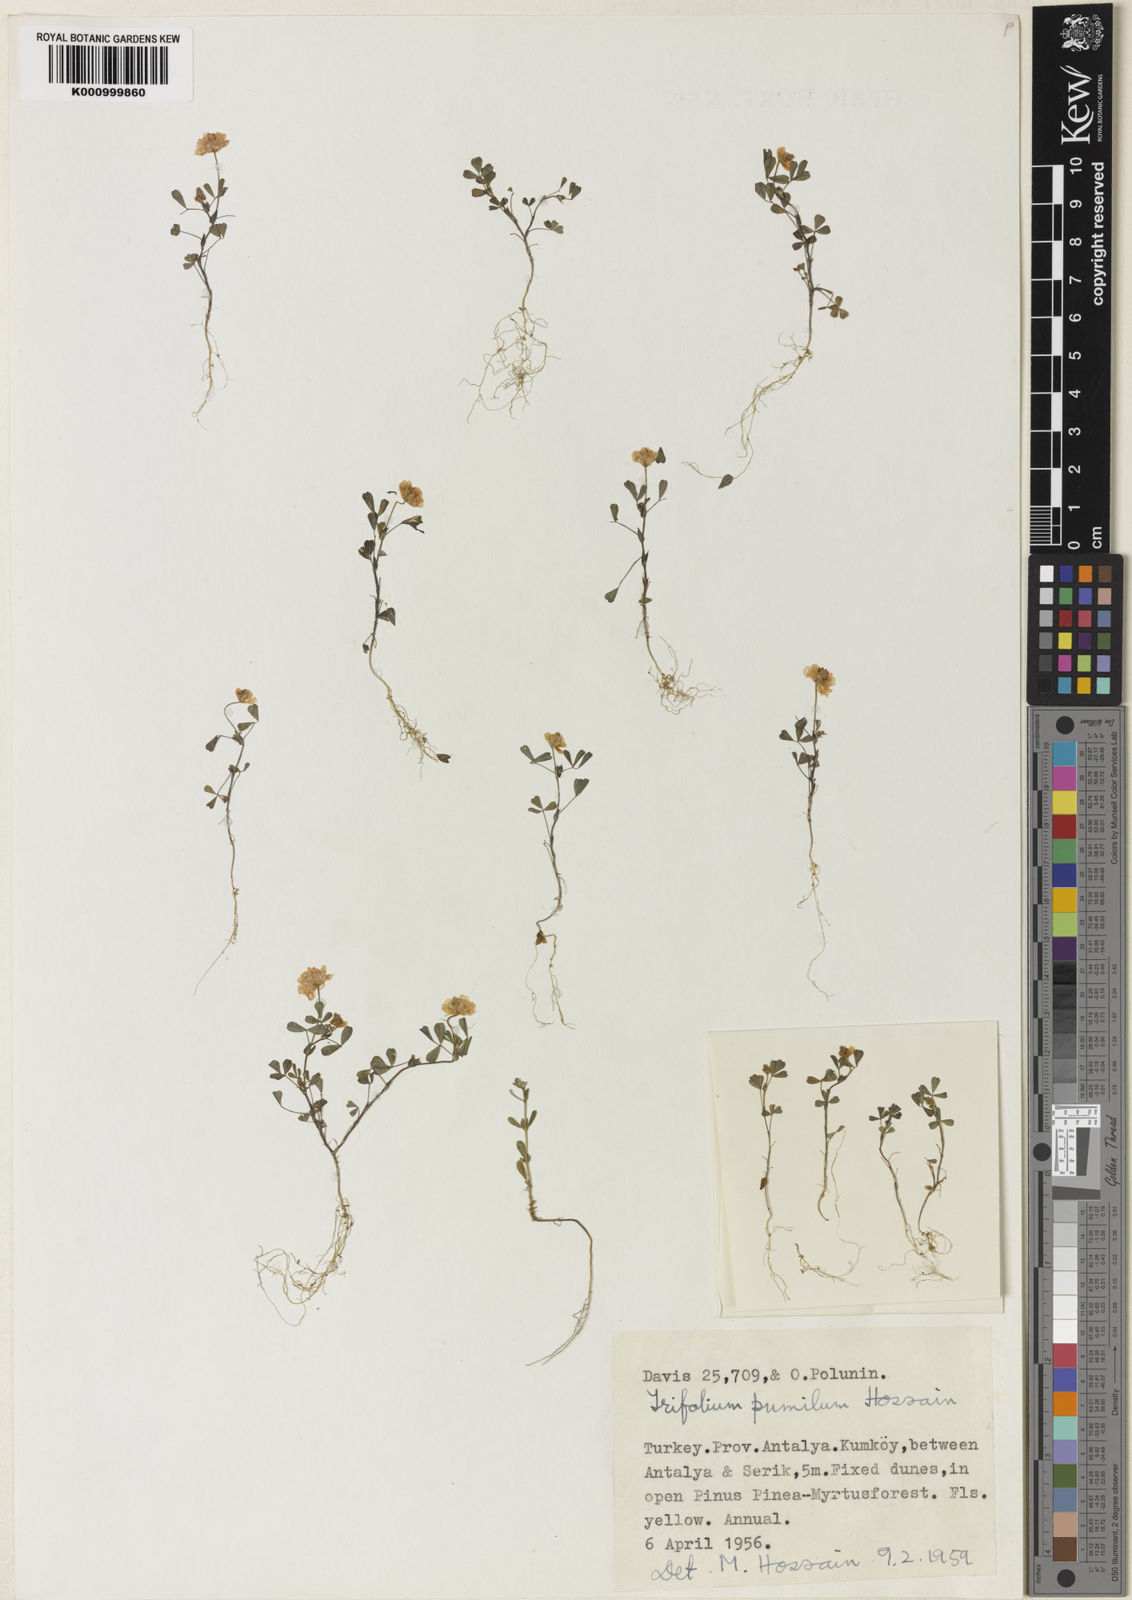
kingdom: Plantae
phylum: Tracheophyta
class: Magnoliopsida
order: Fabales
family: Fabaceae
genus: Trifolium
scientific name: Trifolium campestre
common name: Field clover
